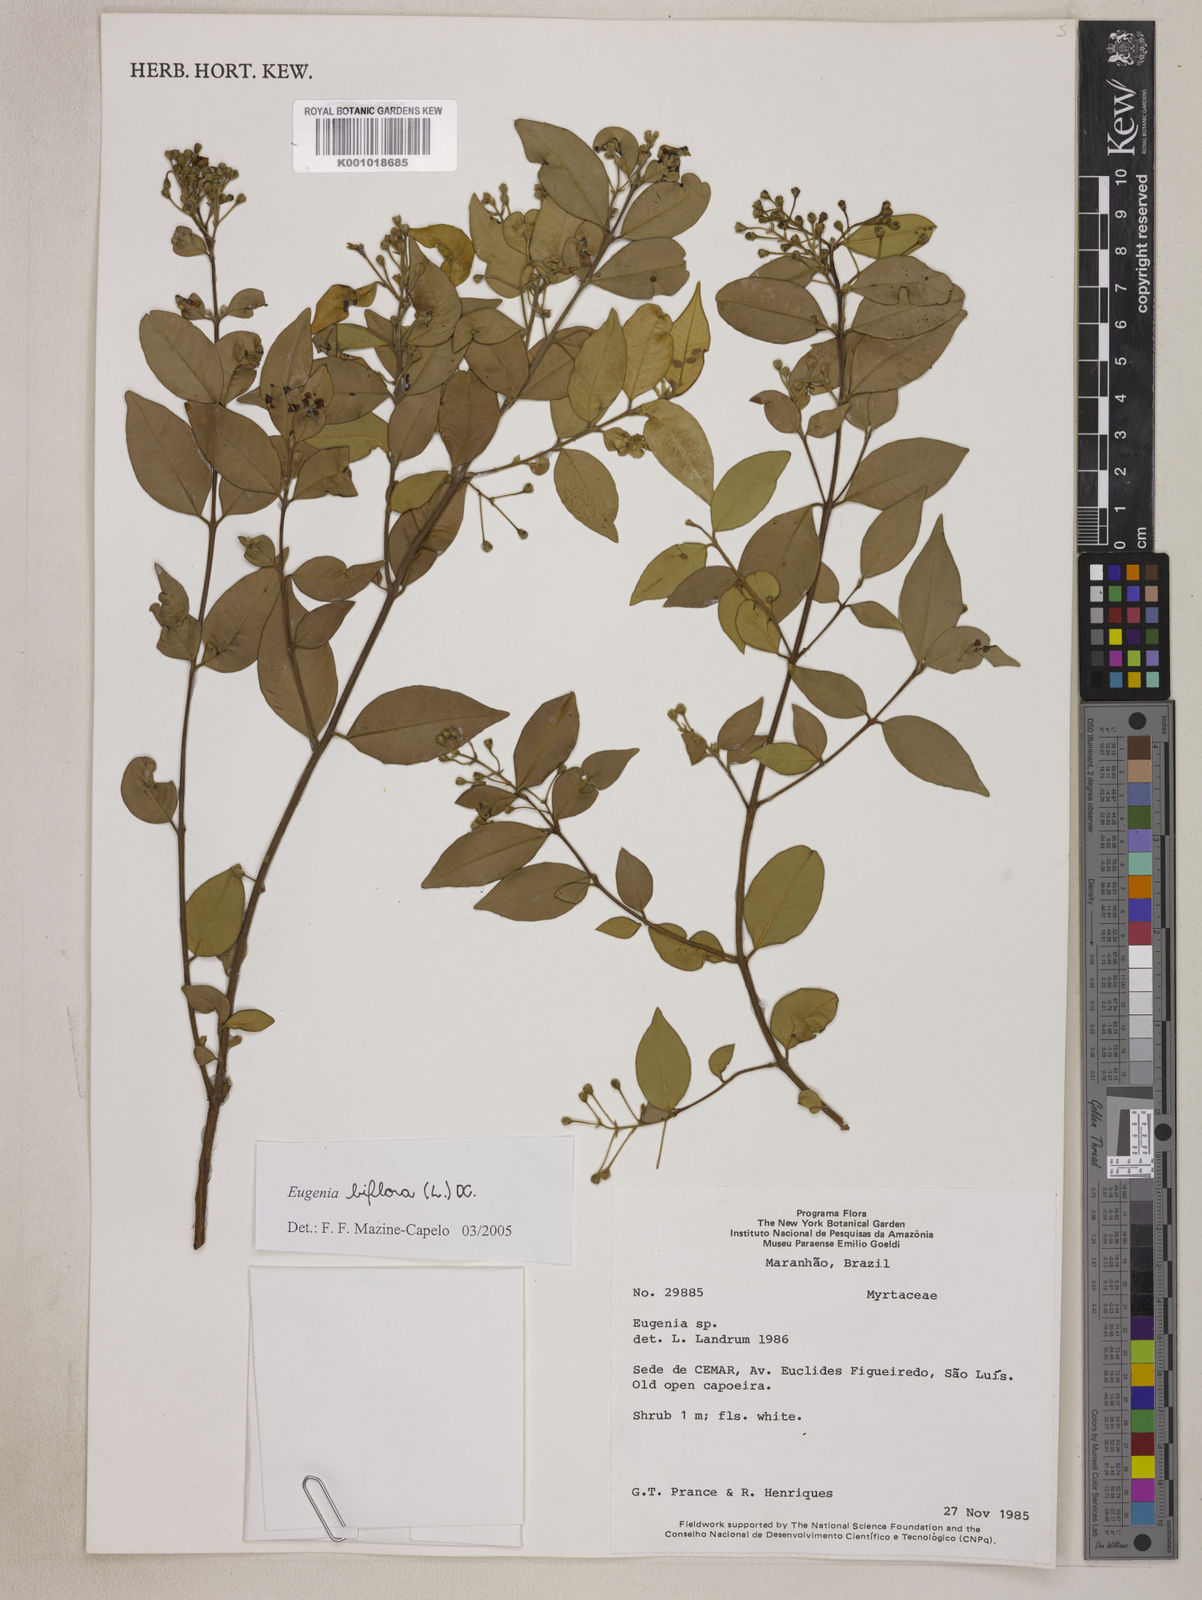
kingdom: Plantae
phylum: Tracheophyta
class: Magnoliopsida
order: Myrtales
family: Myrtaceae
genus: Eugenia
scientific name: Eugenia biflora
